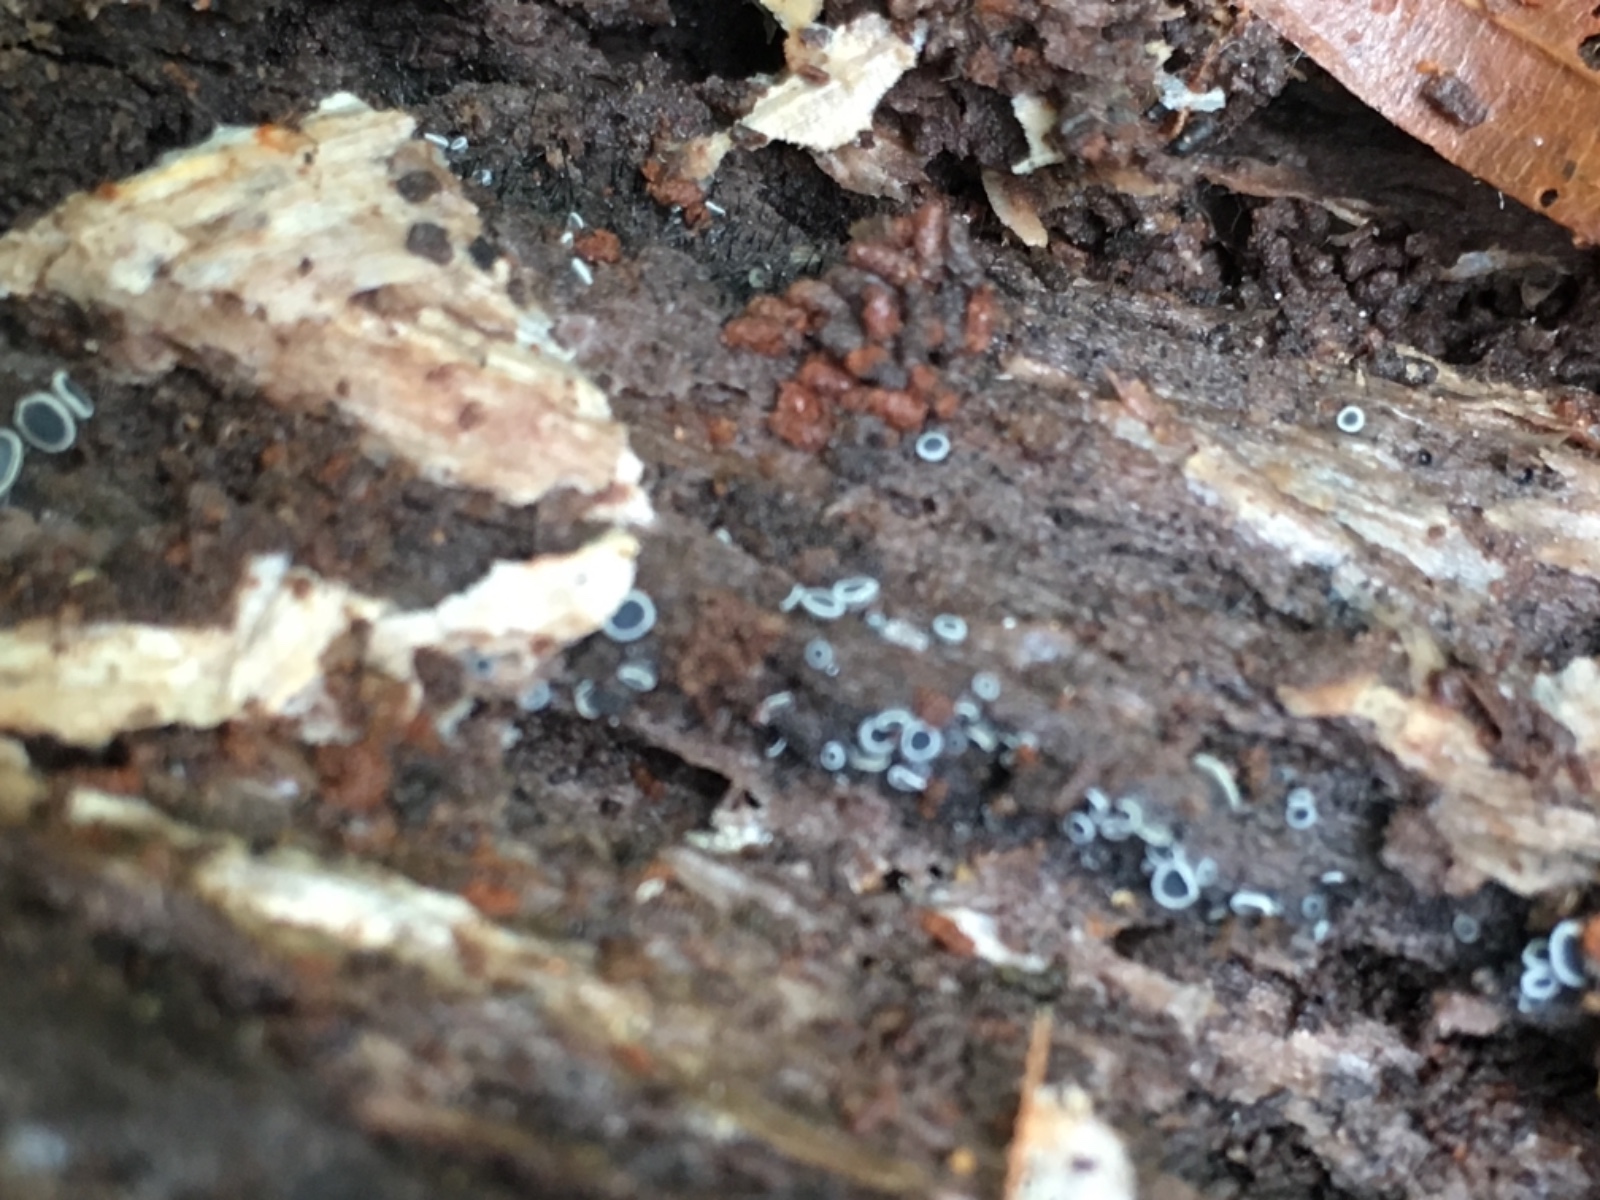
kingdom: Fungi
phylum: Ascomycota
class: Leotiomycetes
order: Helotiales
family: Mollisiaceae
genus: Mollisia
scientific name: Mollisia
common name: gråskive
